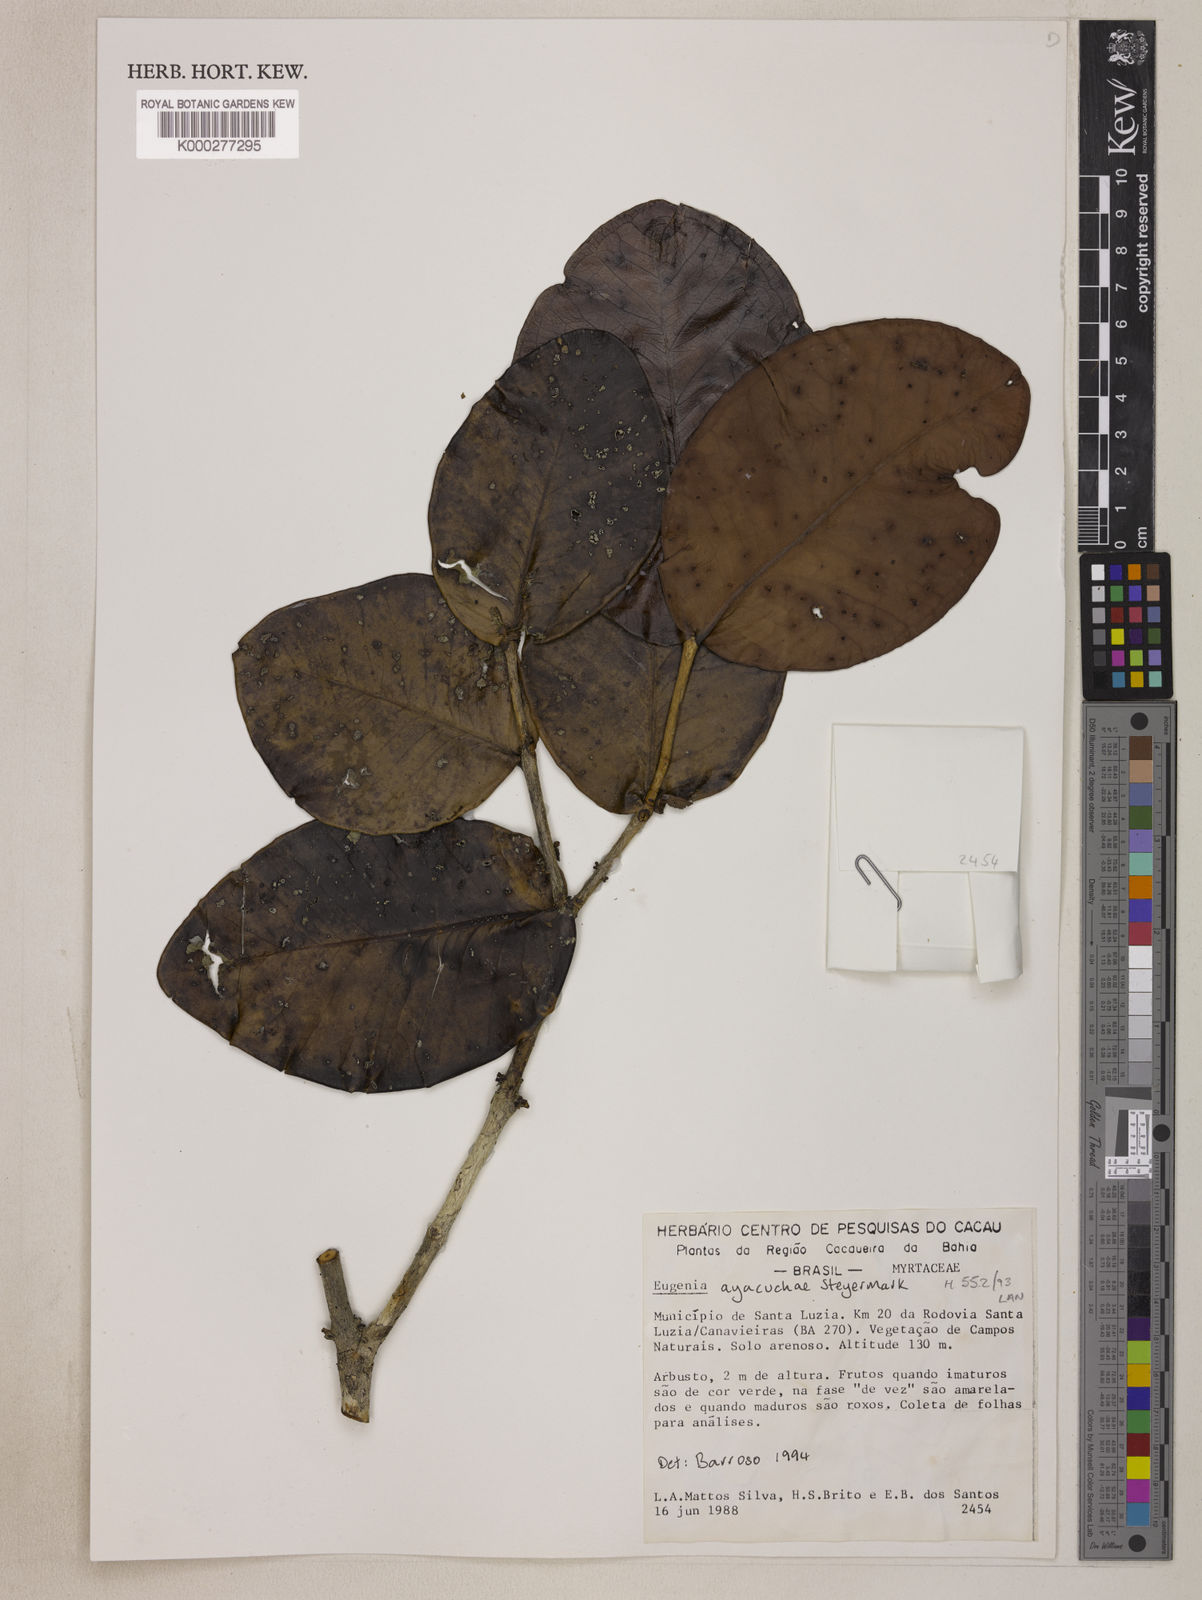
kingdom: Plantae
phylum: Tracheophyta
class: Magnoliopsida
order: Myrtales
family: Myrtaceae
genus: Eugenia
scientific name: Eugenia ayacuchae
